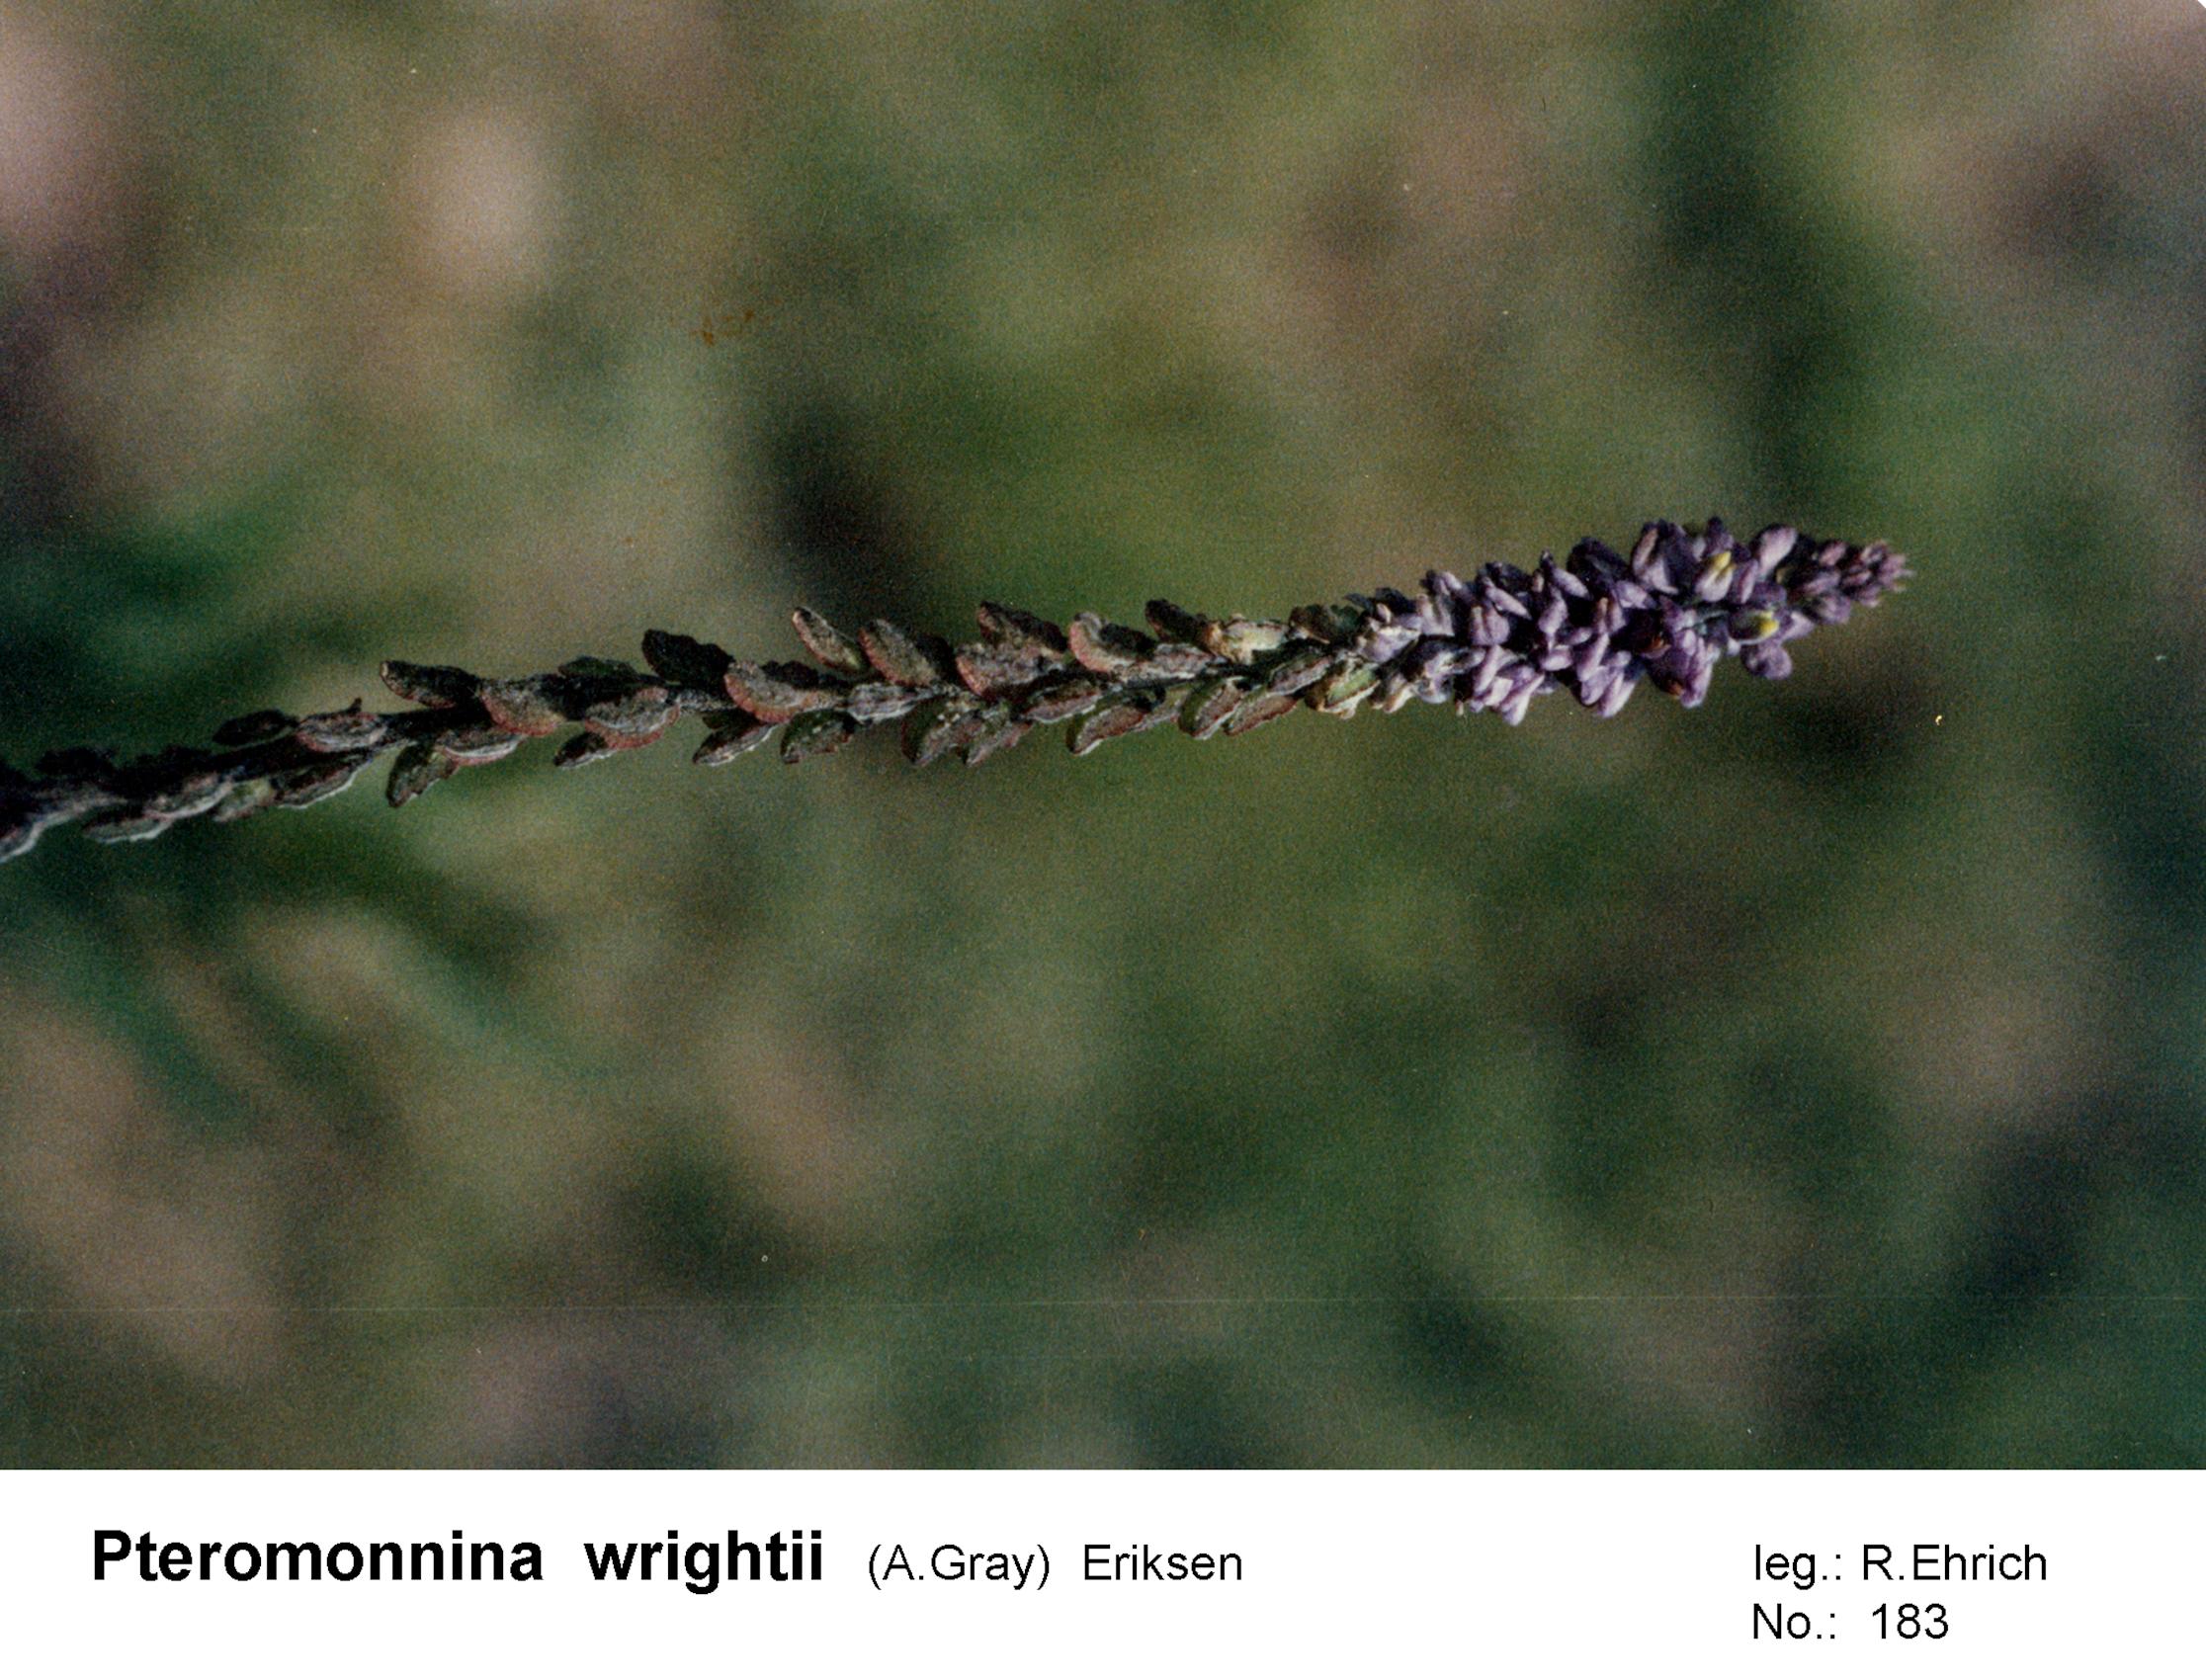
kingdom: Plantae
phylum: Tracheophyta
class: Magnoliopsida
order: Fabales
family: Polygalaceae
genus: Monnina
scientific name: Monnina wrightii
